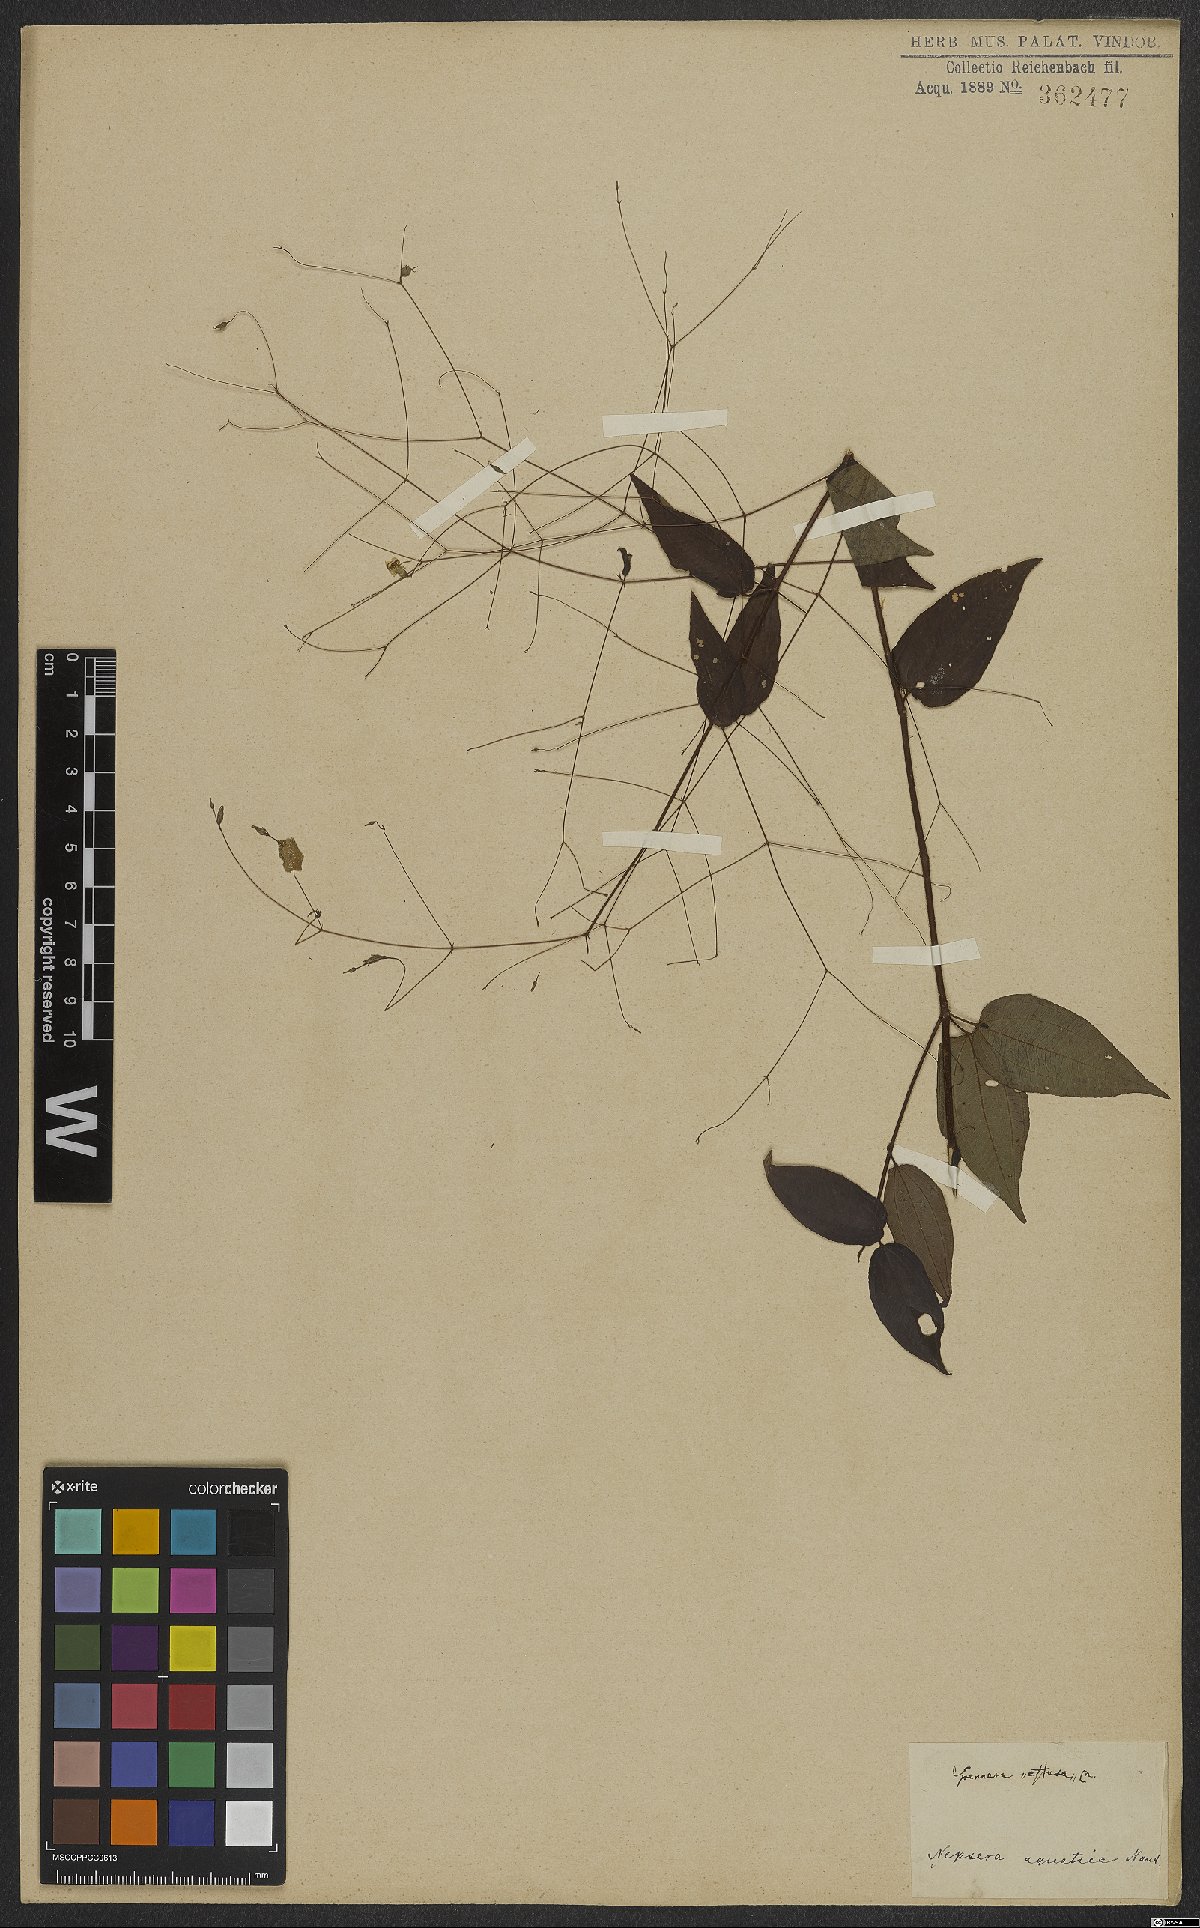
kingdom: Plantae
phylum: Tracheophyta
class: Magnoliopsida
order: Myrtales
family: Melastomataceae
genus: Nepsera
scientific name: Nepsera aquatica
